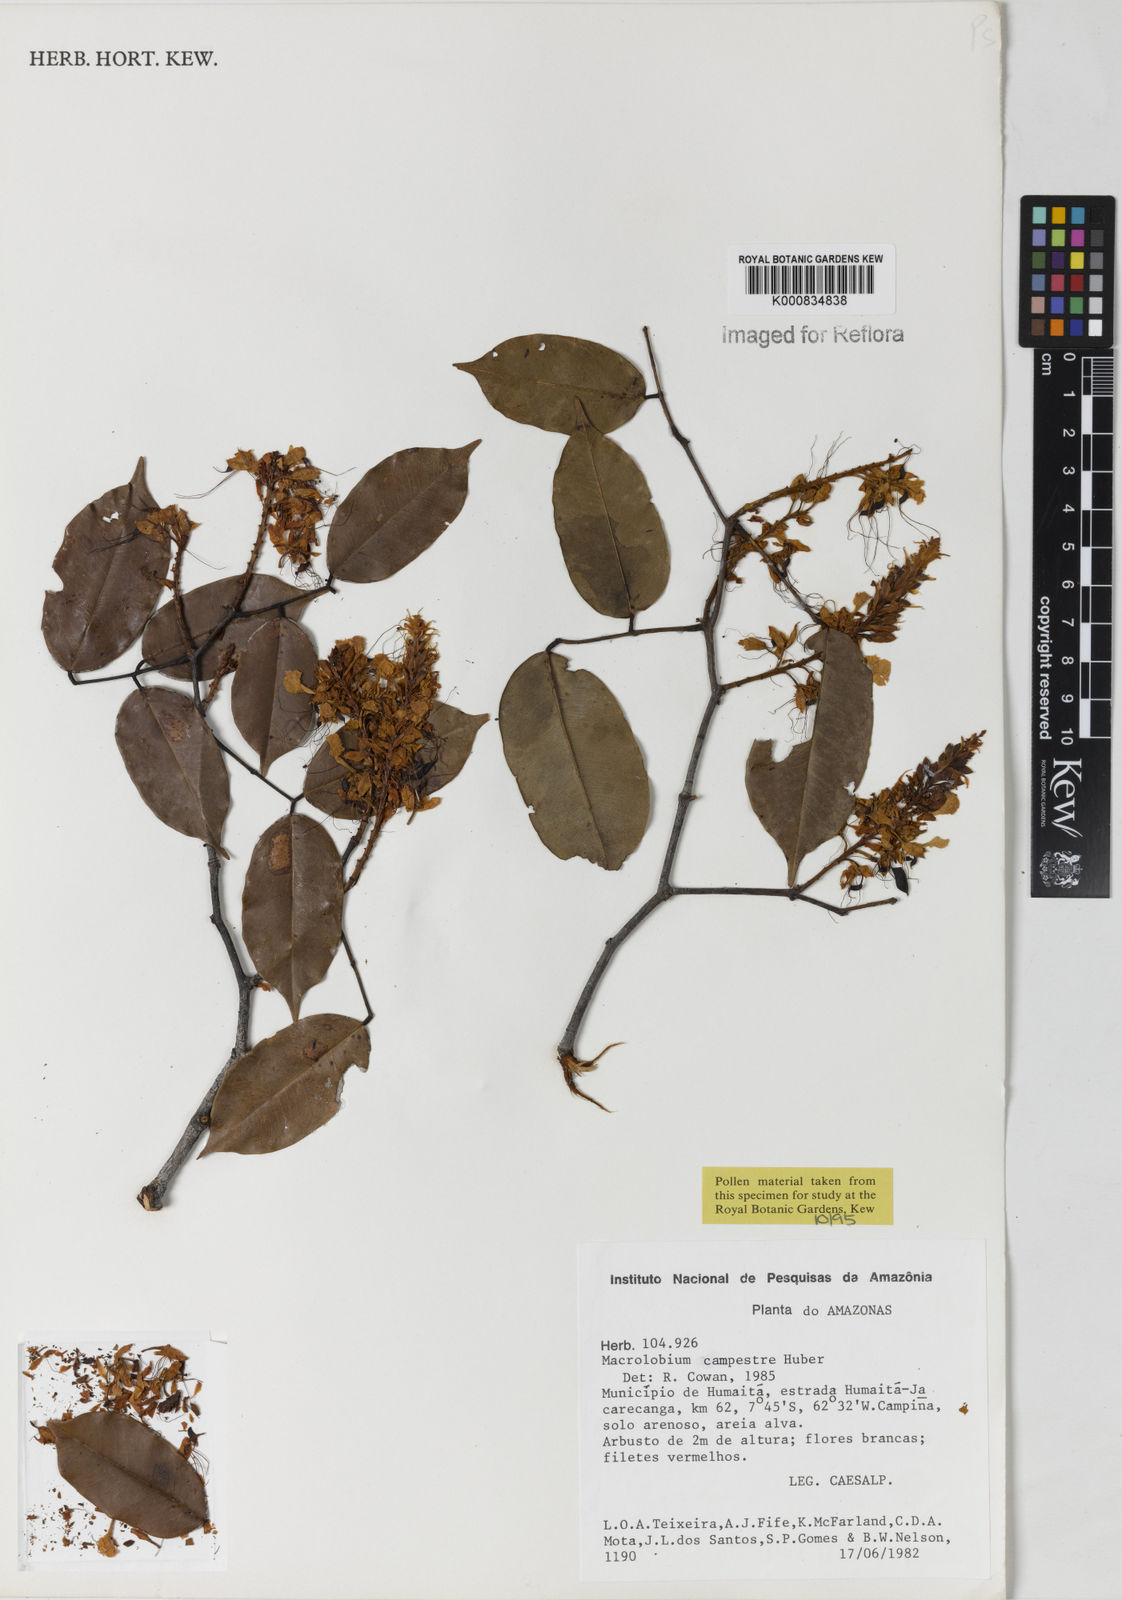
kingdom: Plantae
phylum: Tracheophyta
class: Magnoliopsida
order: Fabales
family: Fabaceae
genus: Macrolobium
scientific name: Macrolobium campestre
